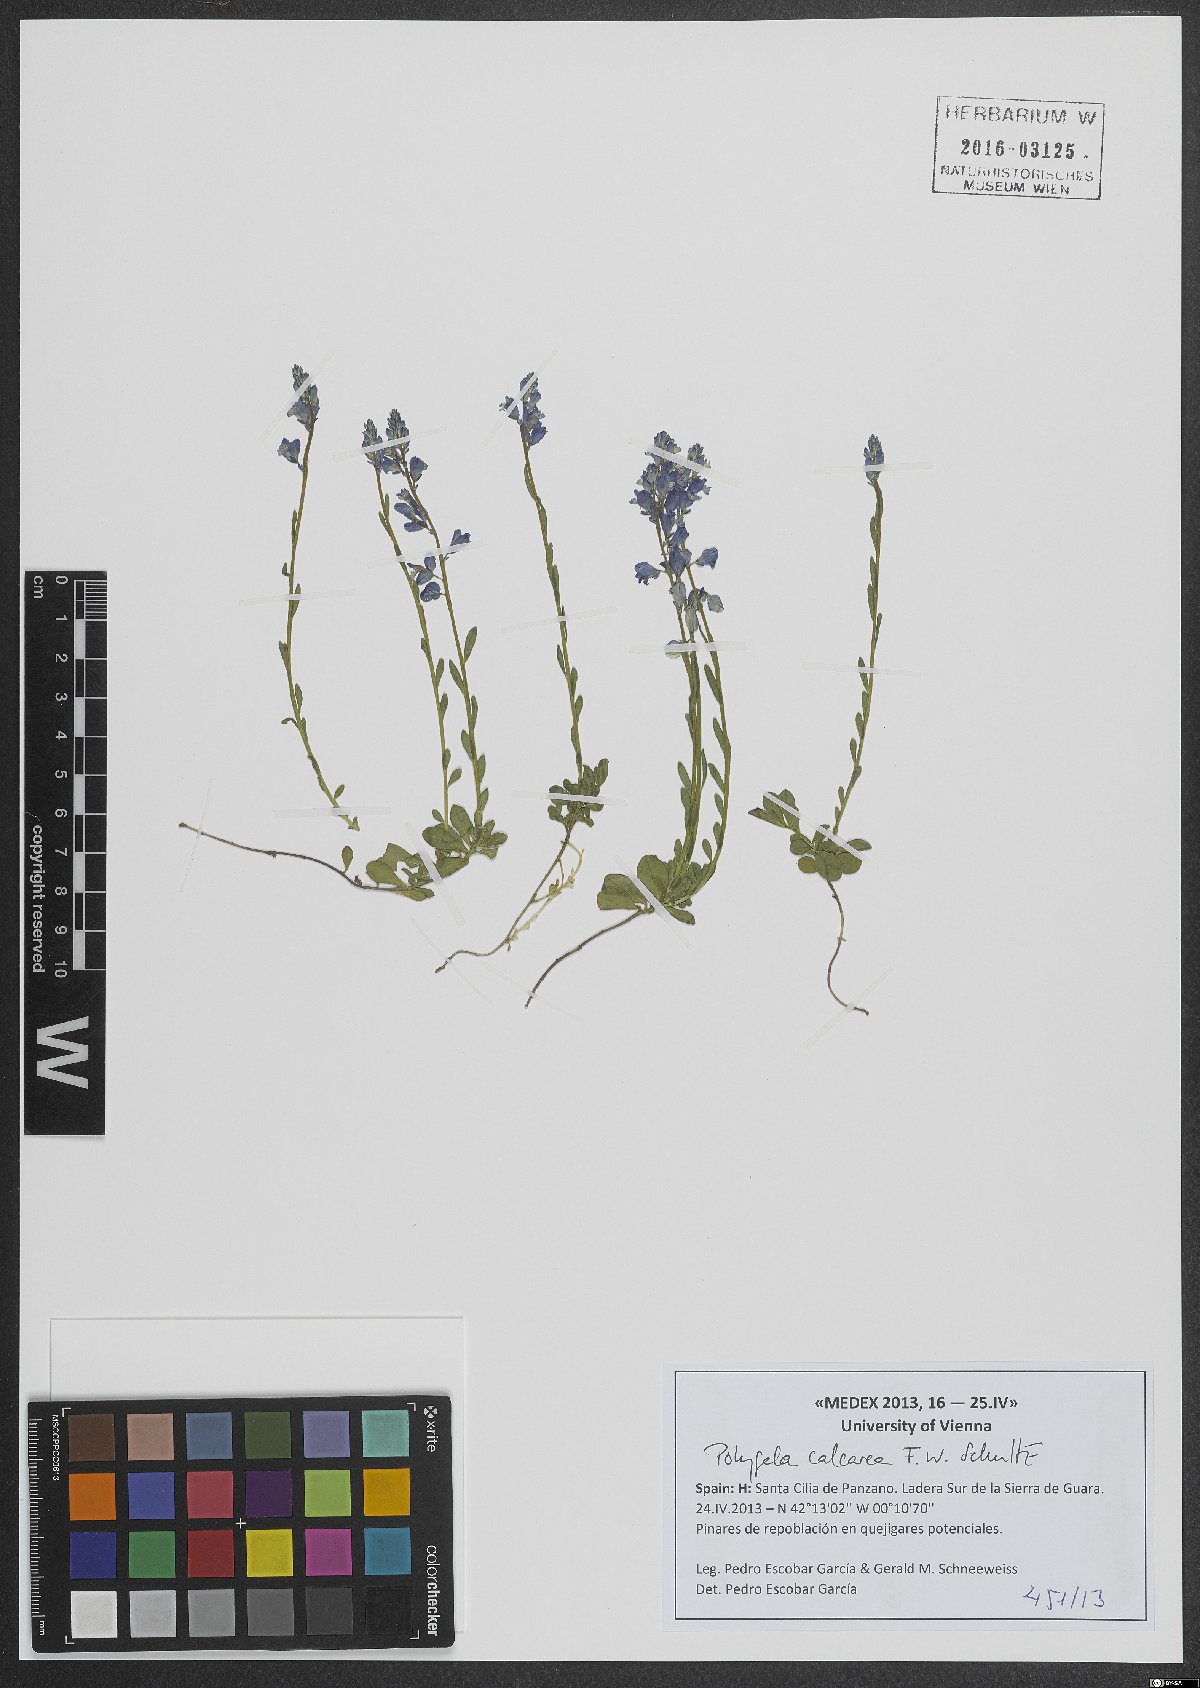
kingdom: Plantae
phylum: Tracheophyta
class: Magnoliopsida
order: Fabales
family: Polygalaceae
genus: Polygala
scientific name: Polygala calcarea
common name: Chalk milkwort
